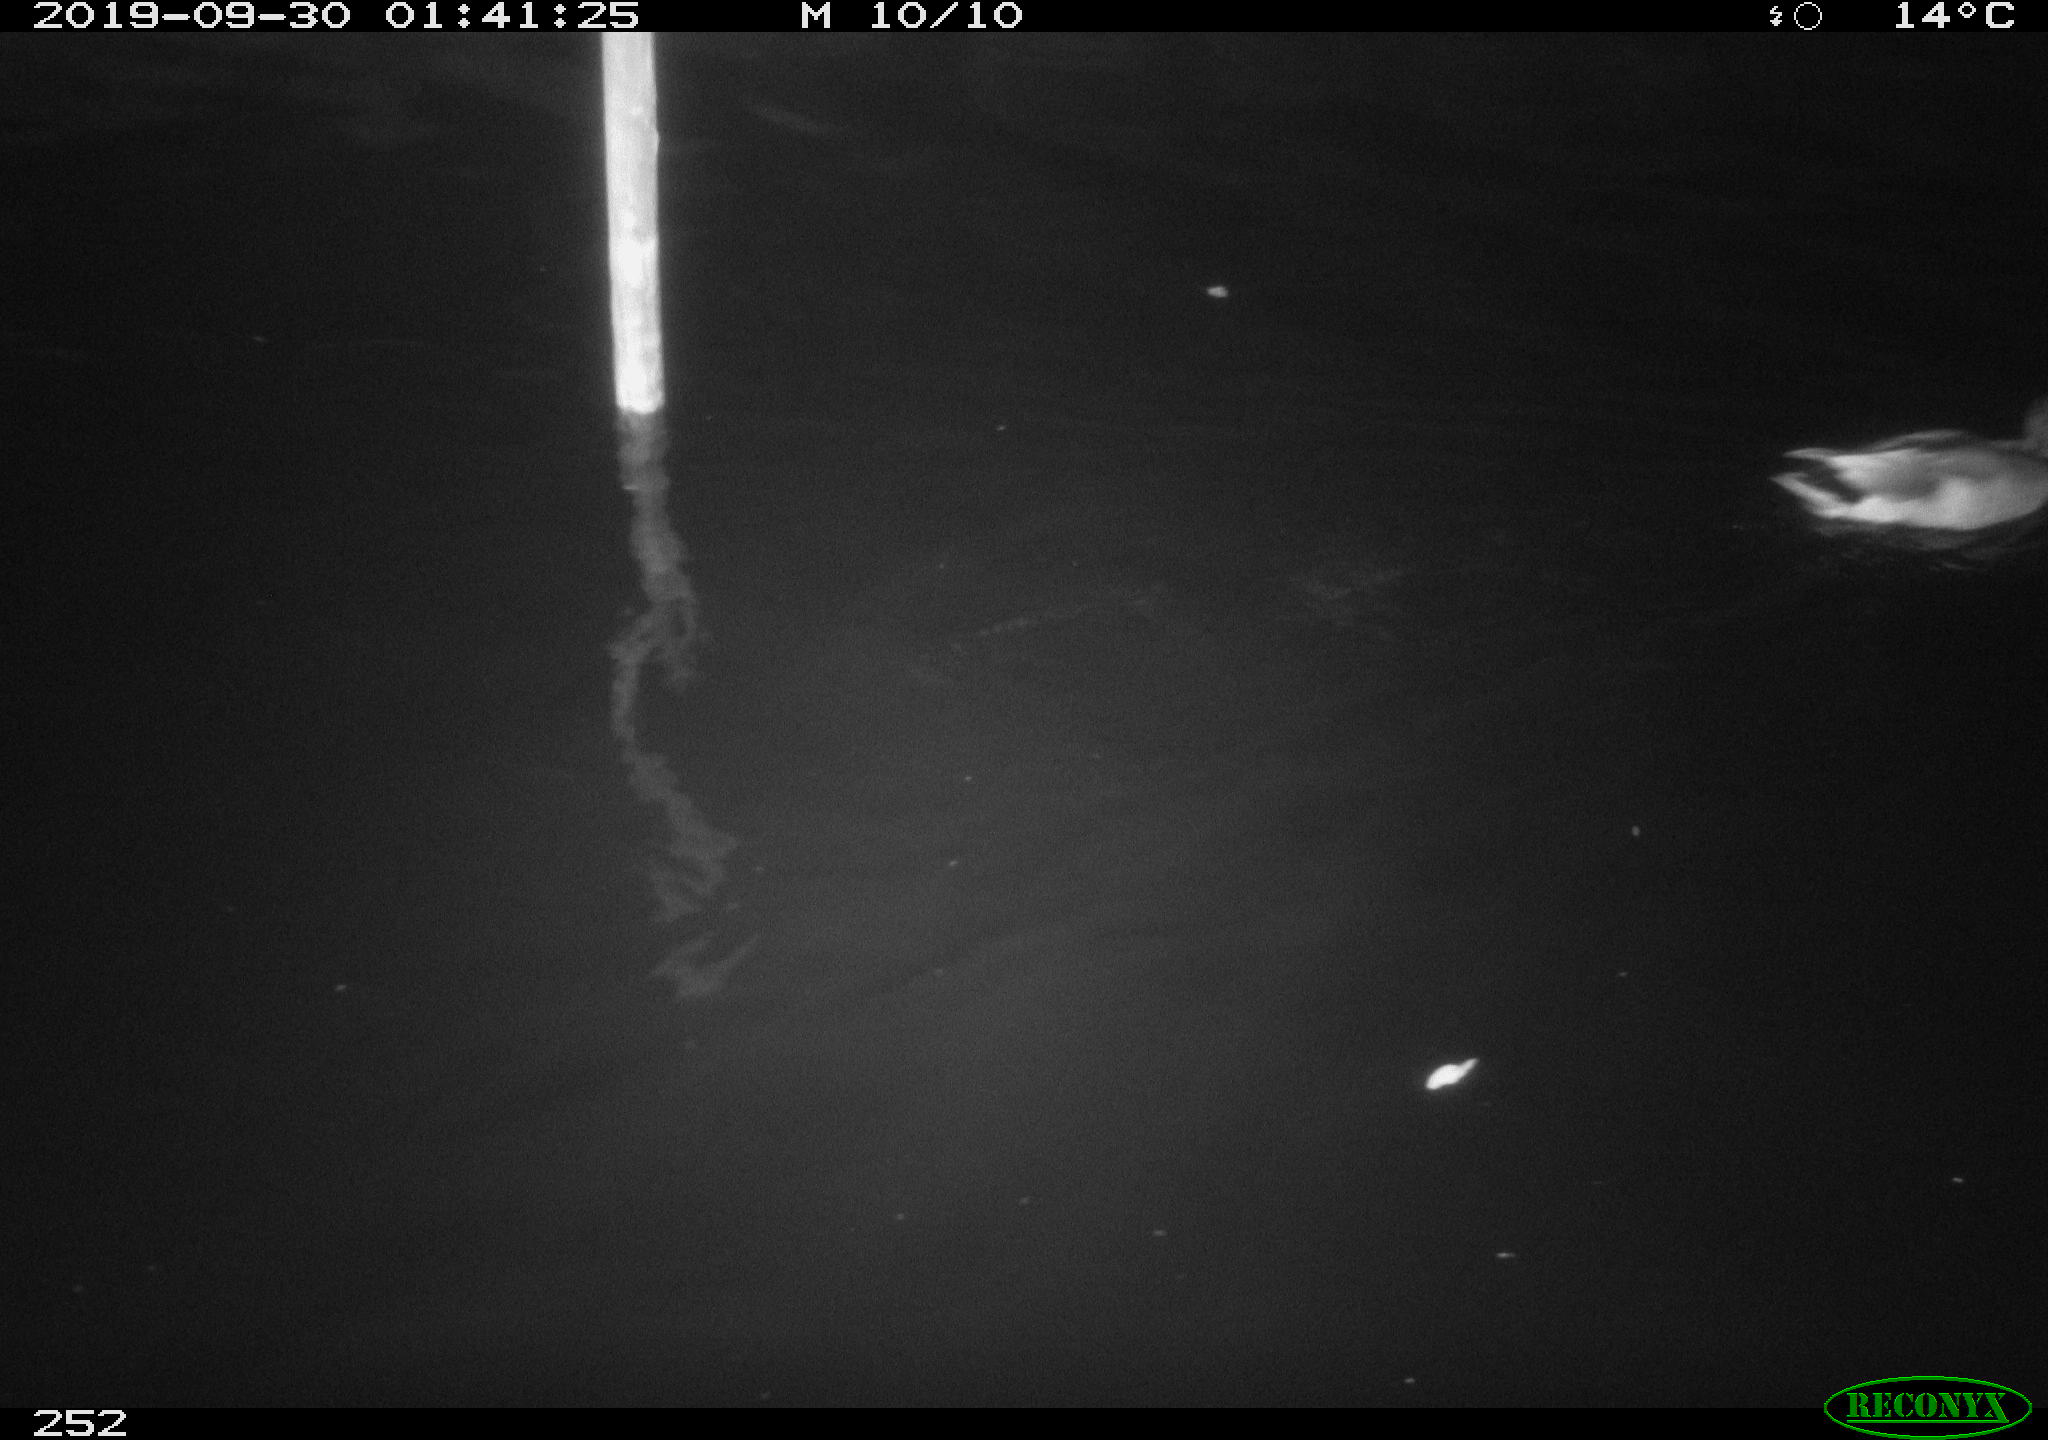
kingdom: Animalia
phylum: Chordata
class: Aves
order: Anseriformes
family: Anatidae
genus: Anas
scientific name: Anas platyrhynchos
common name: Mallard
